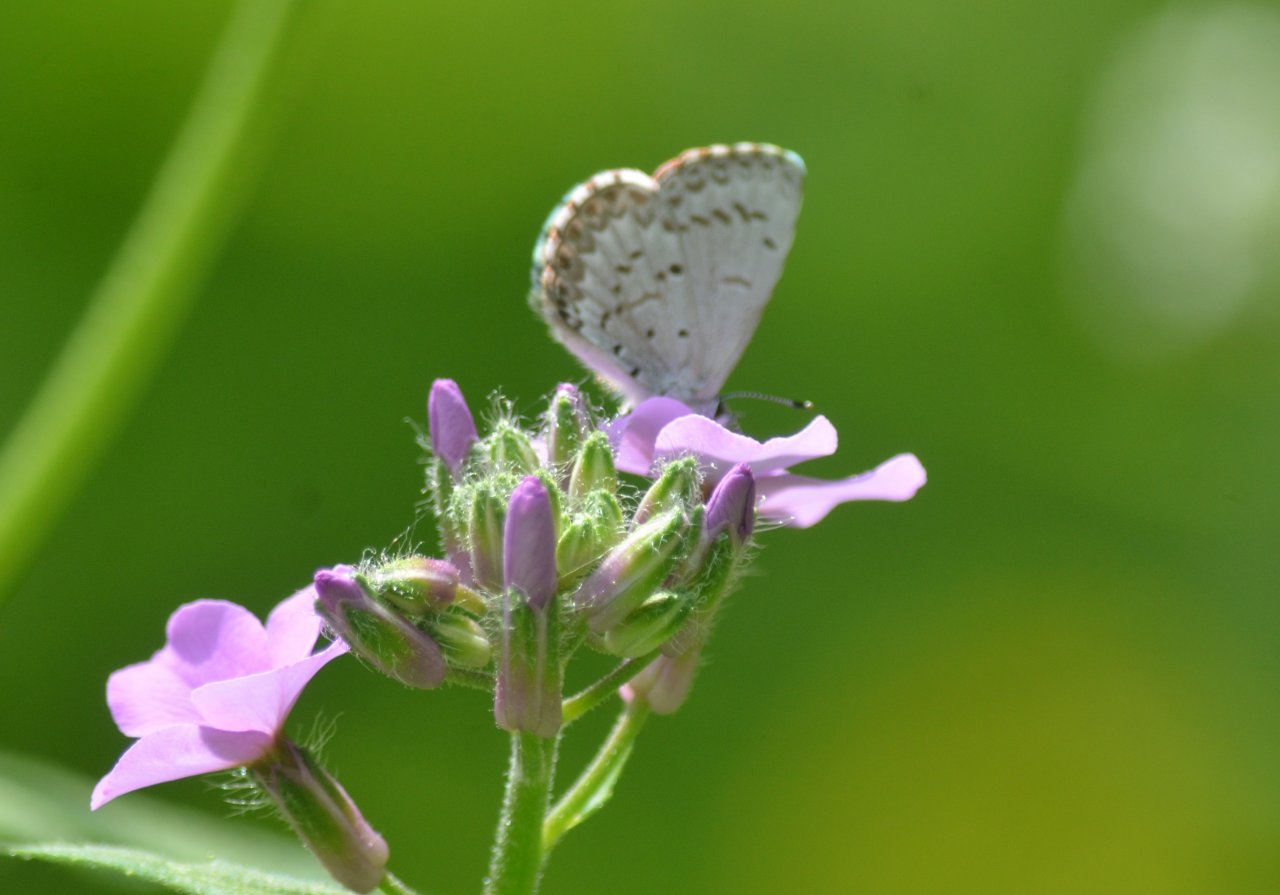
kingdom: Animalia
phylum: Arthropoda
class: Insecta
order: Lepidoptera
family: Lycaenidae
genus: Celastrina
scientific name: Celastrina lucia
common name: Northern Spring Azure
